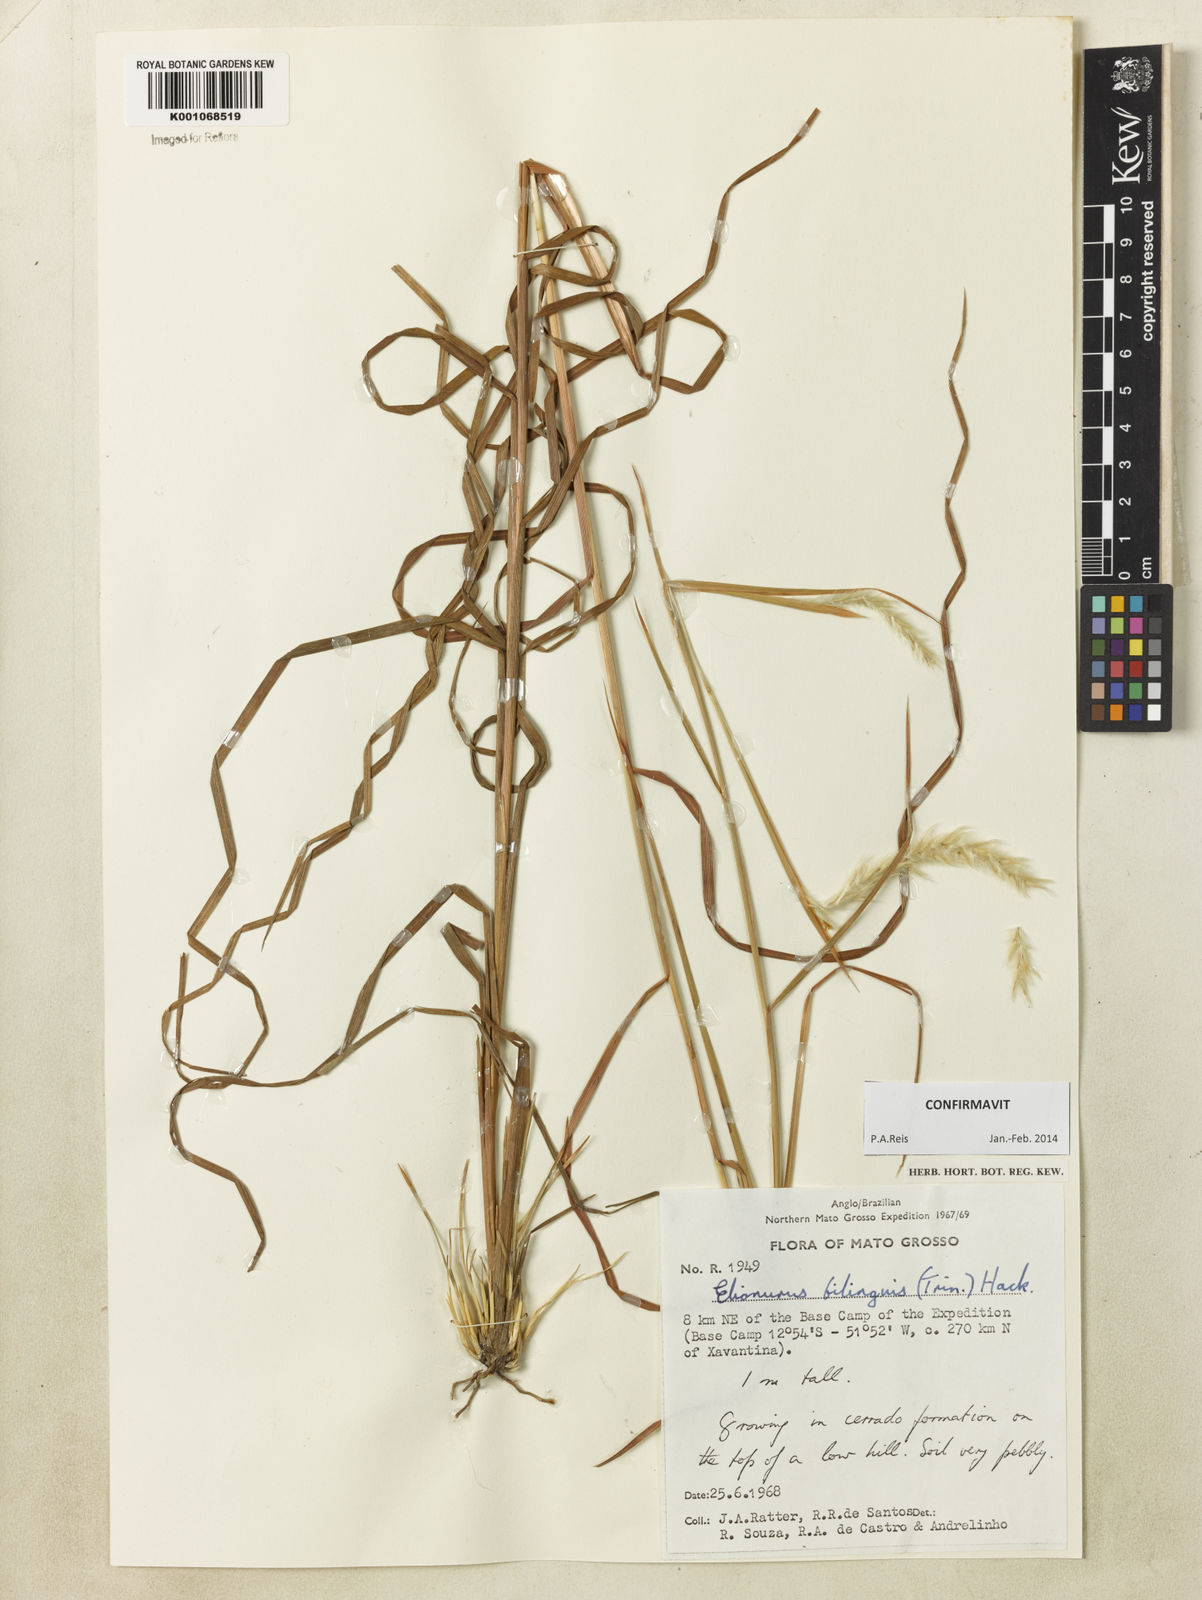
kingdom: Plantae
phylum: Tracheophyta
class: Liliopsida
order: Poales
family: Poaceae
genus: Elionurus
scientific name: Elionurus bilinguis
